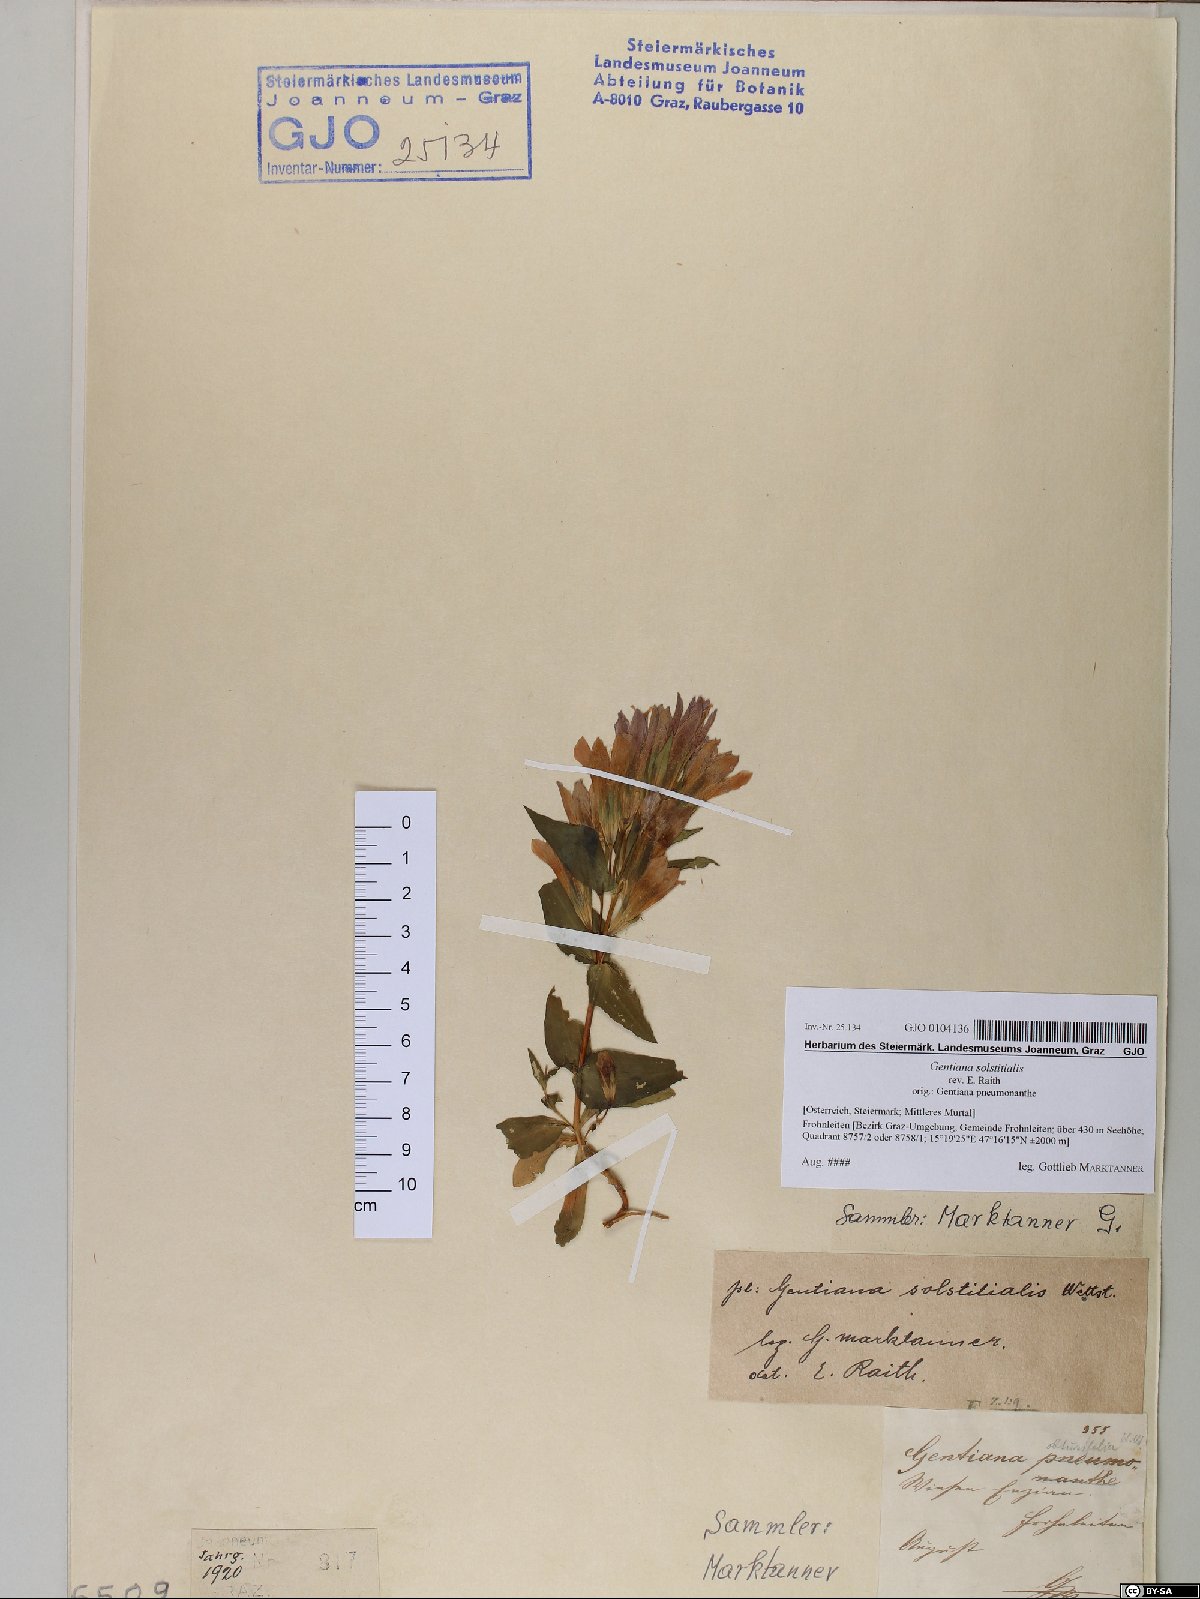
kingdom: Plantae
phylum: Tracheophyta
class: Magnoliopsida
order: Gentianales
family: Gentianaceae
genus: Gentianella
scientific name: Gentianella germanica
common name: Chiltern-gentian
